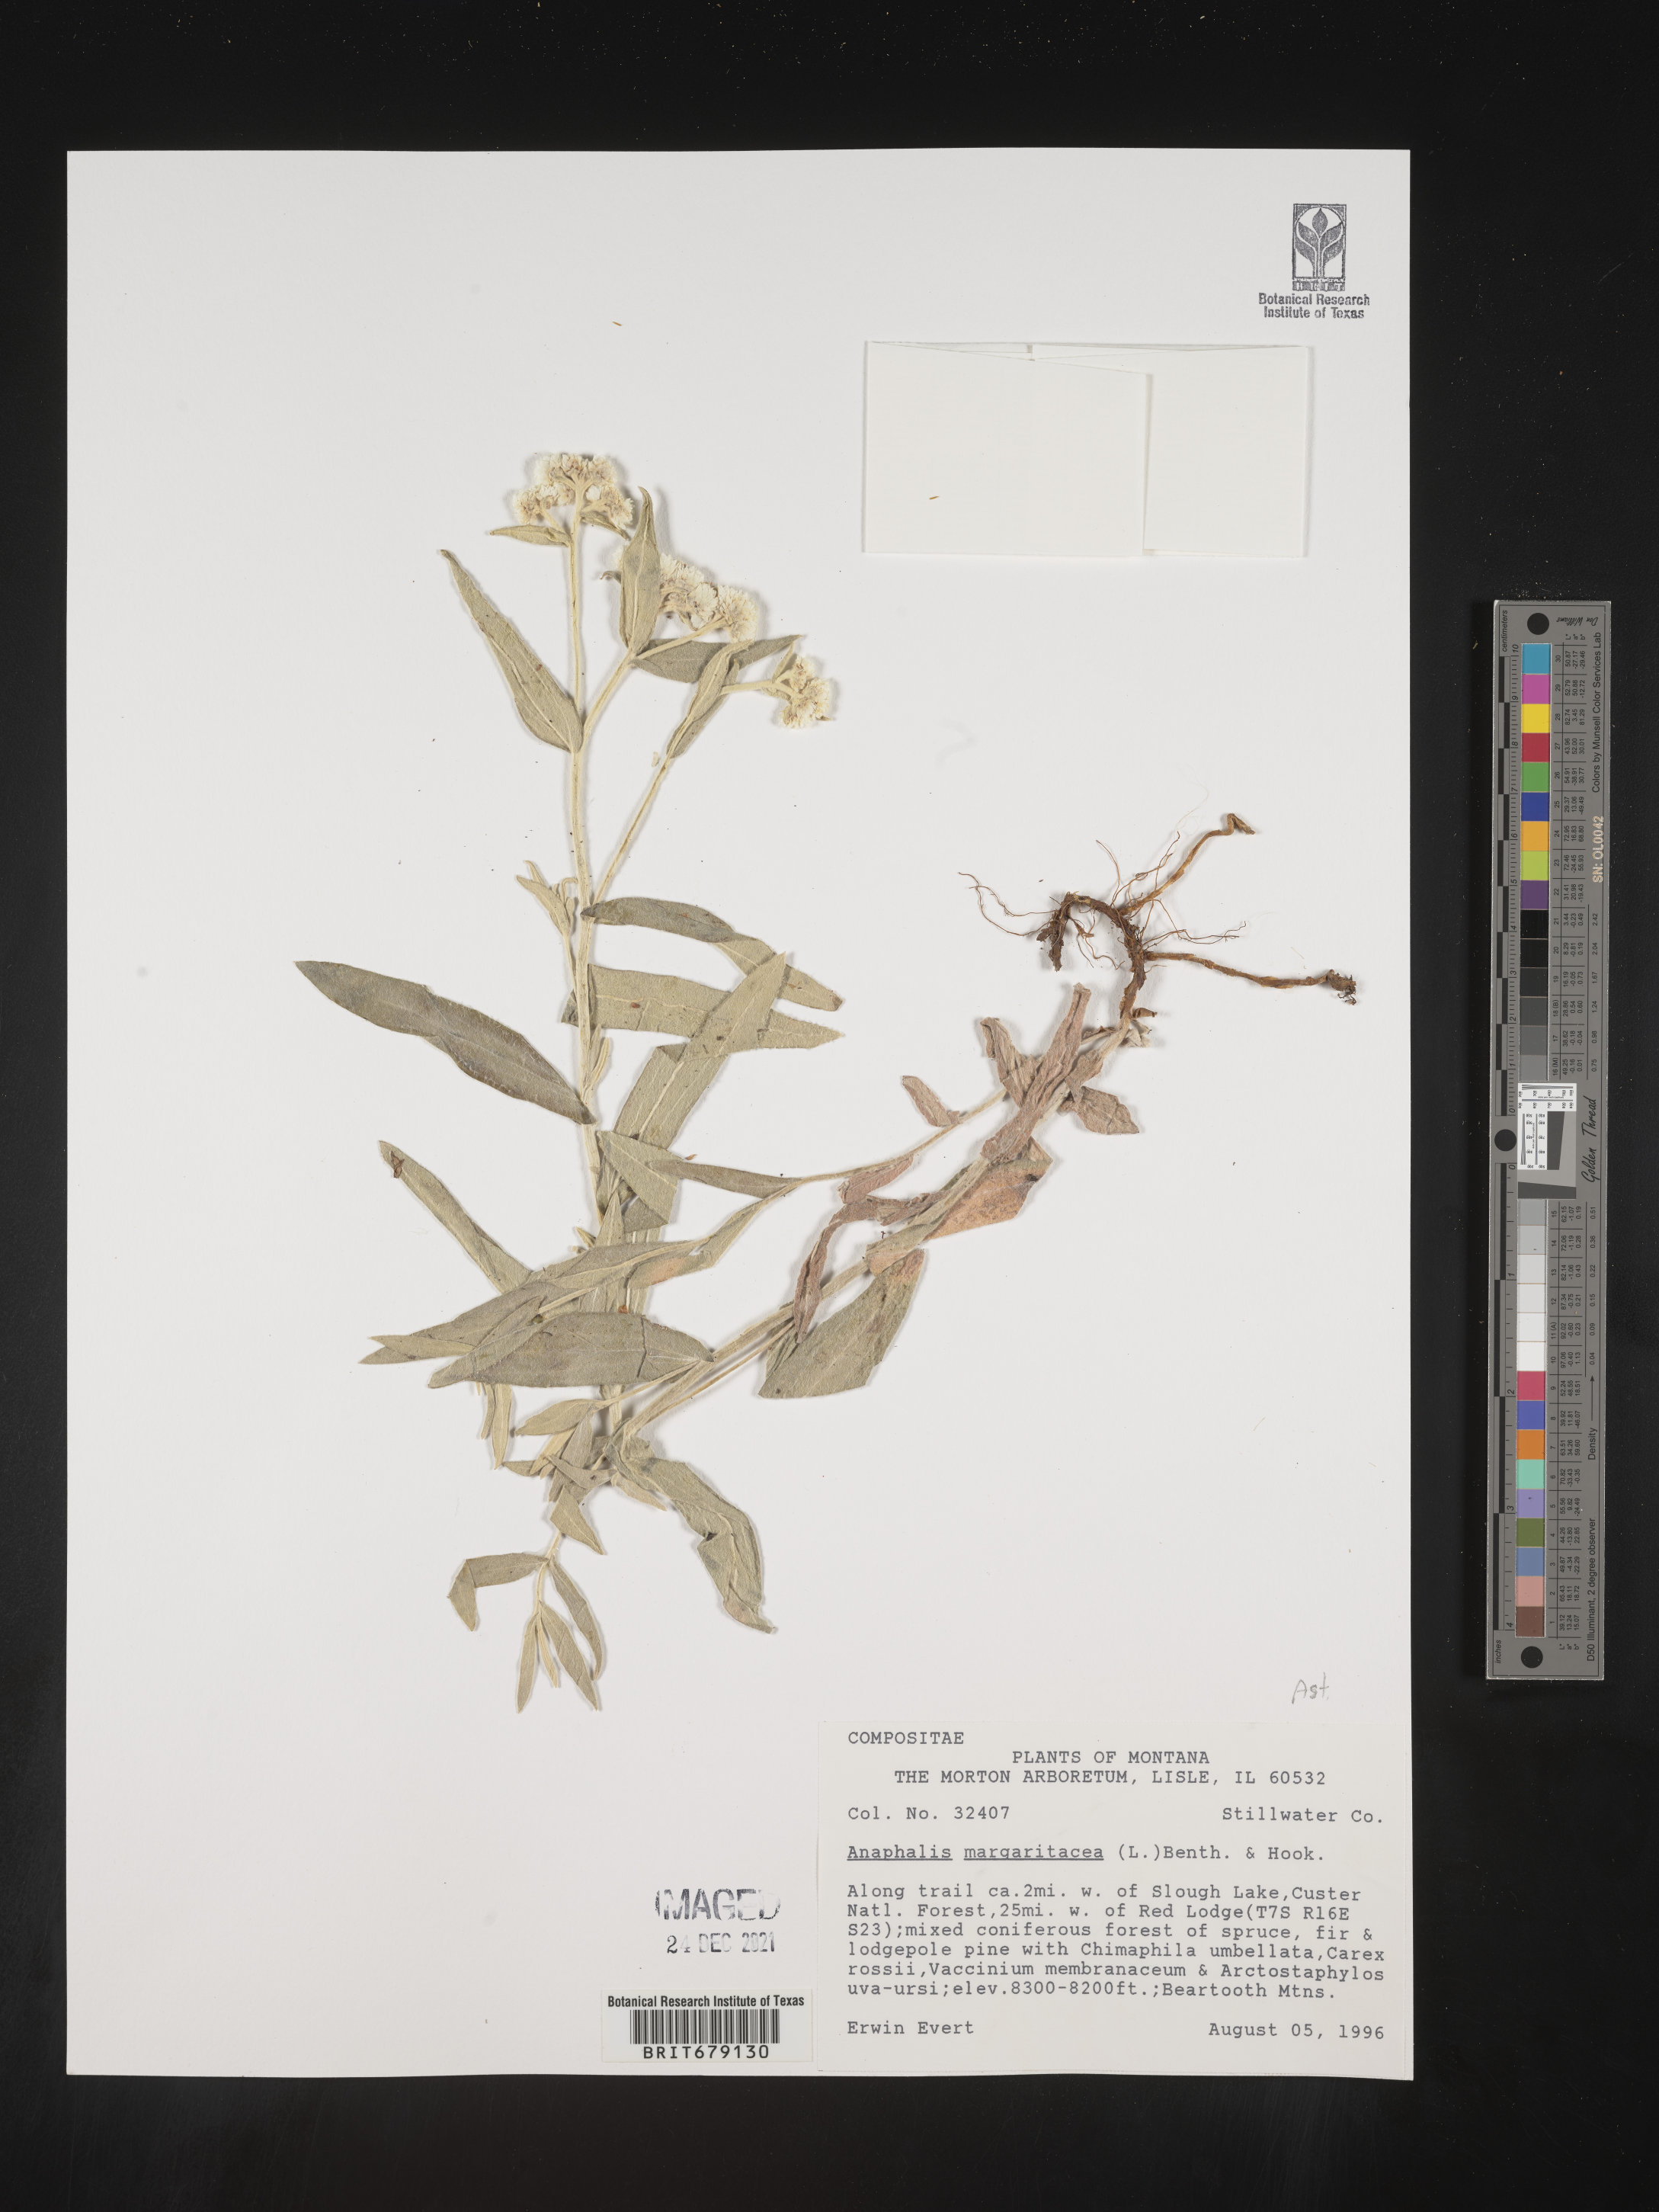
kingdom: Plantae
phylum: Tracheophyta
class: Magnoliopsida
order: Asterales
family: Asteraceae
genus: Anaphalis
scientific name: Anaphalis margaritacea
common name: Pearly everlasting
